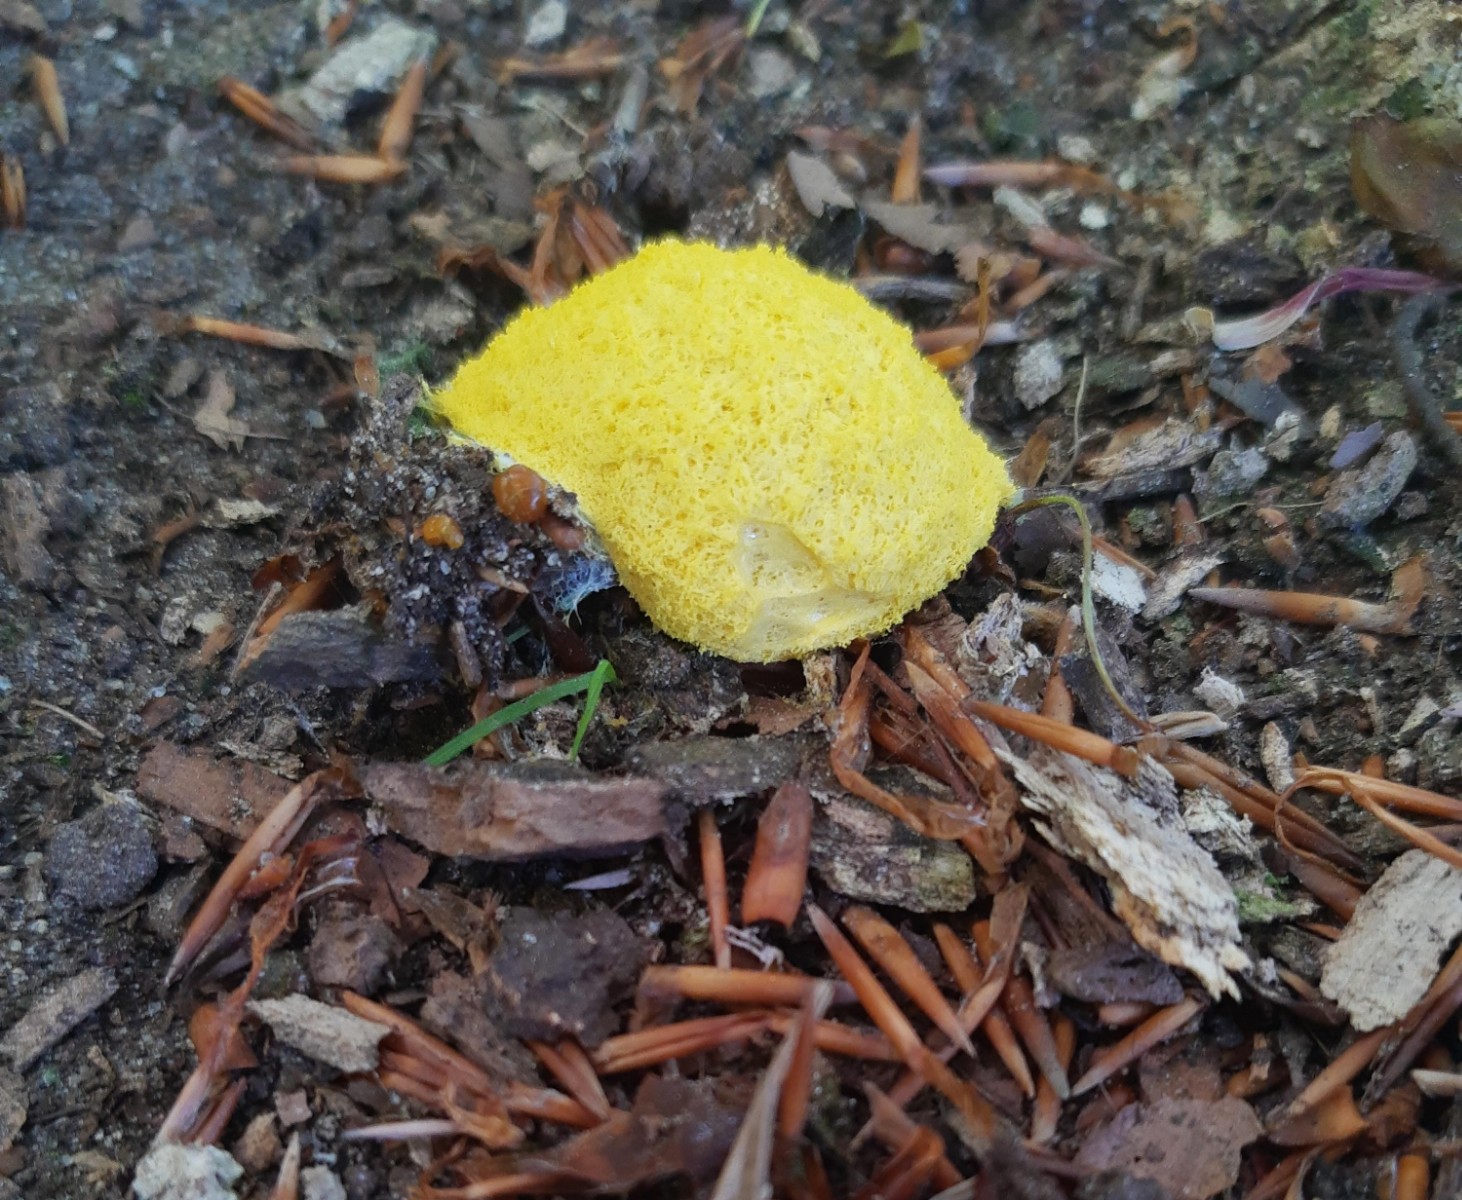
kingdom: Protozoa
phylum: Mycetozoa
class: Myxomycetes
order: Physarales
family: Physaraceae
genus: Fuligo
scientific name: Fuligo septica
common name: gul troldsmør
